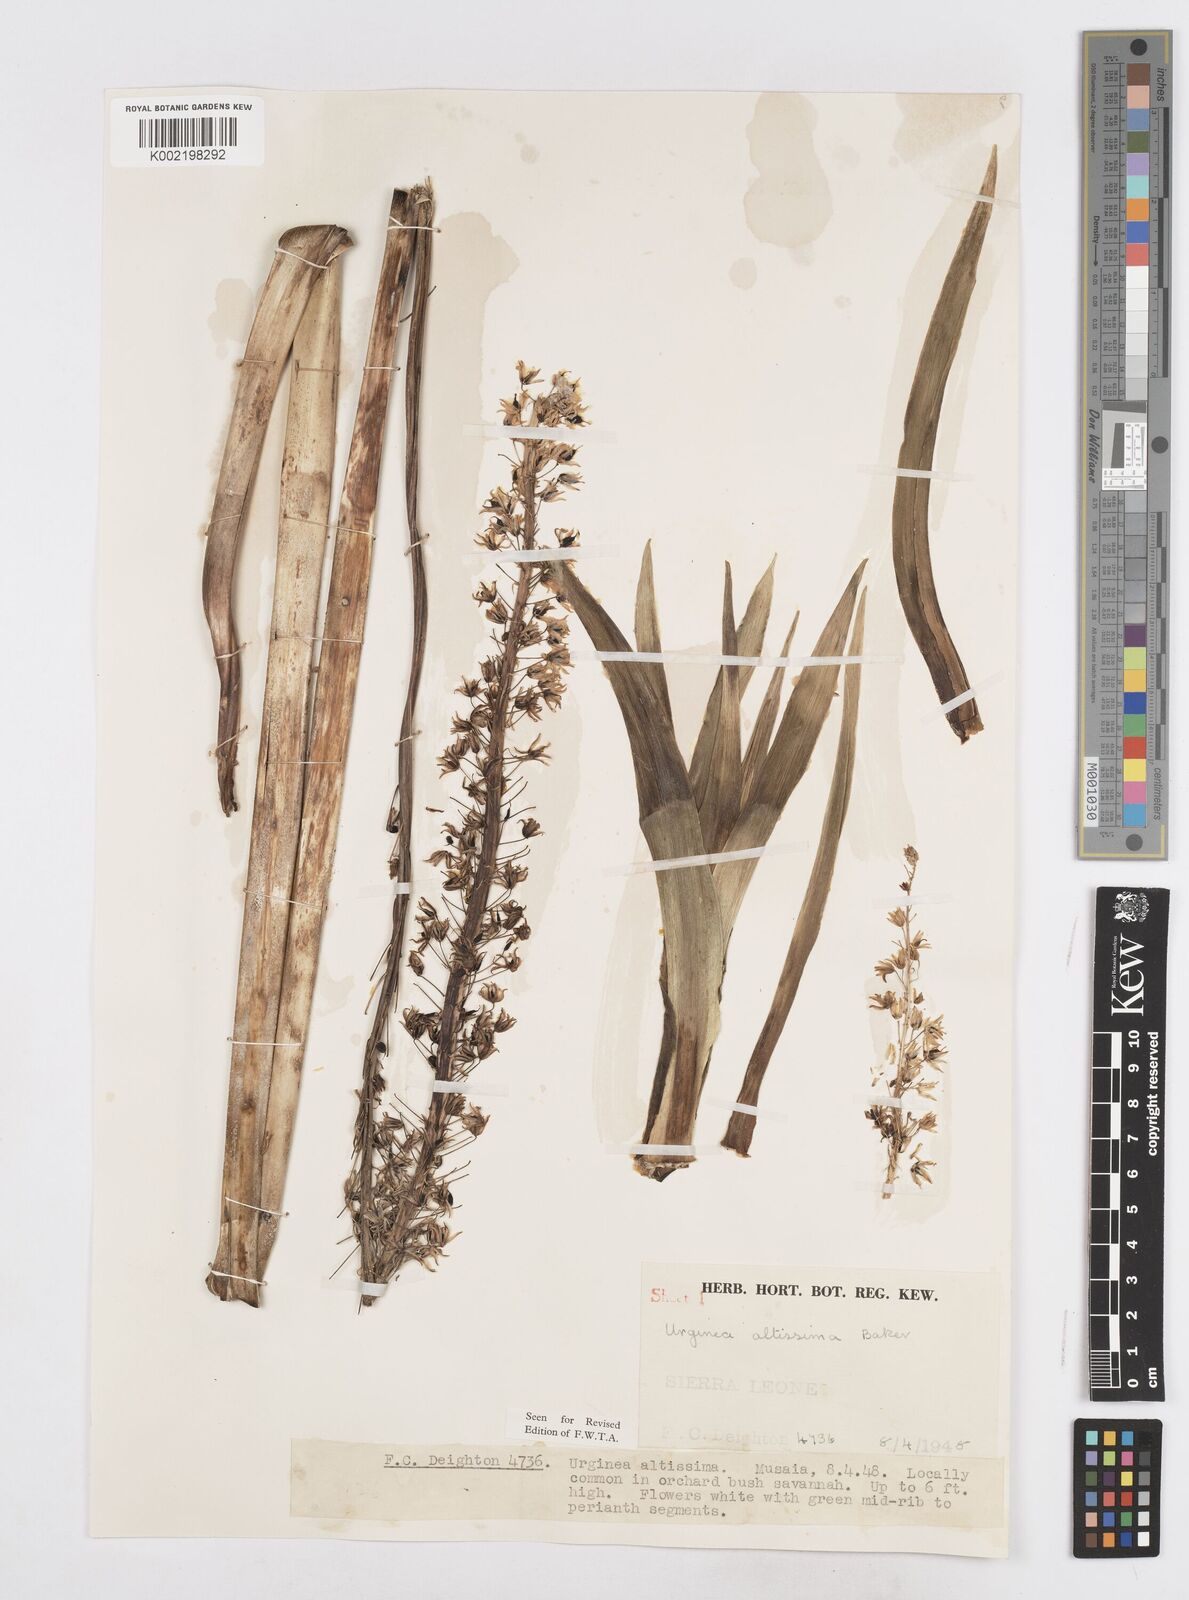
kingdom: Plantae
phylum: Tracheophyta
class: Liliopsida
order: Asparagales
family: Asparagaceae
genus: Drimia
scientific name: Drimia altissima
